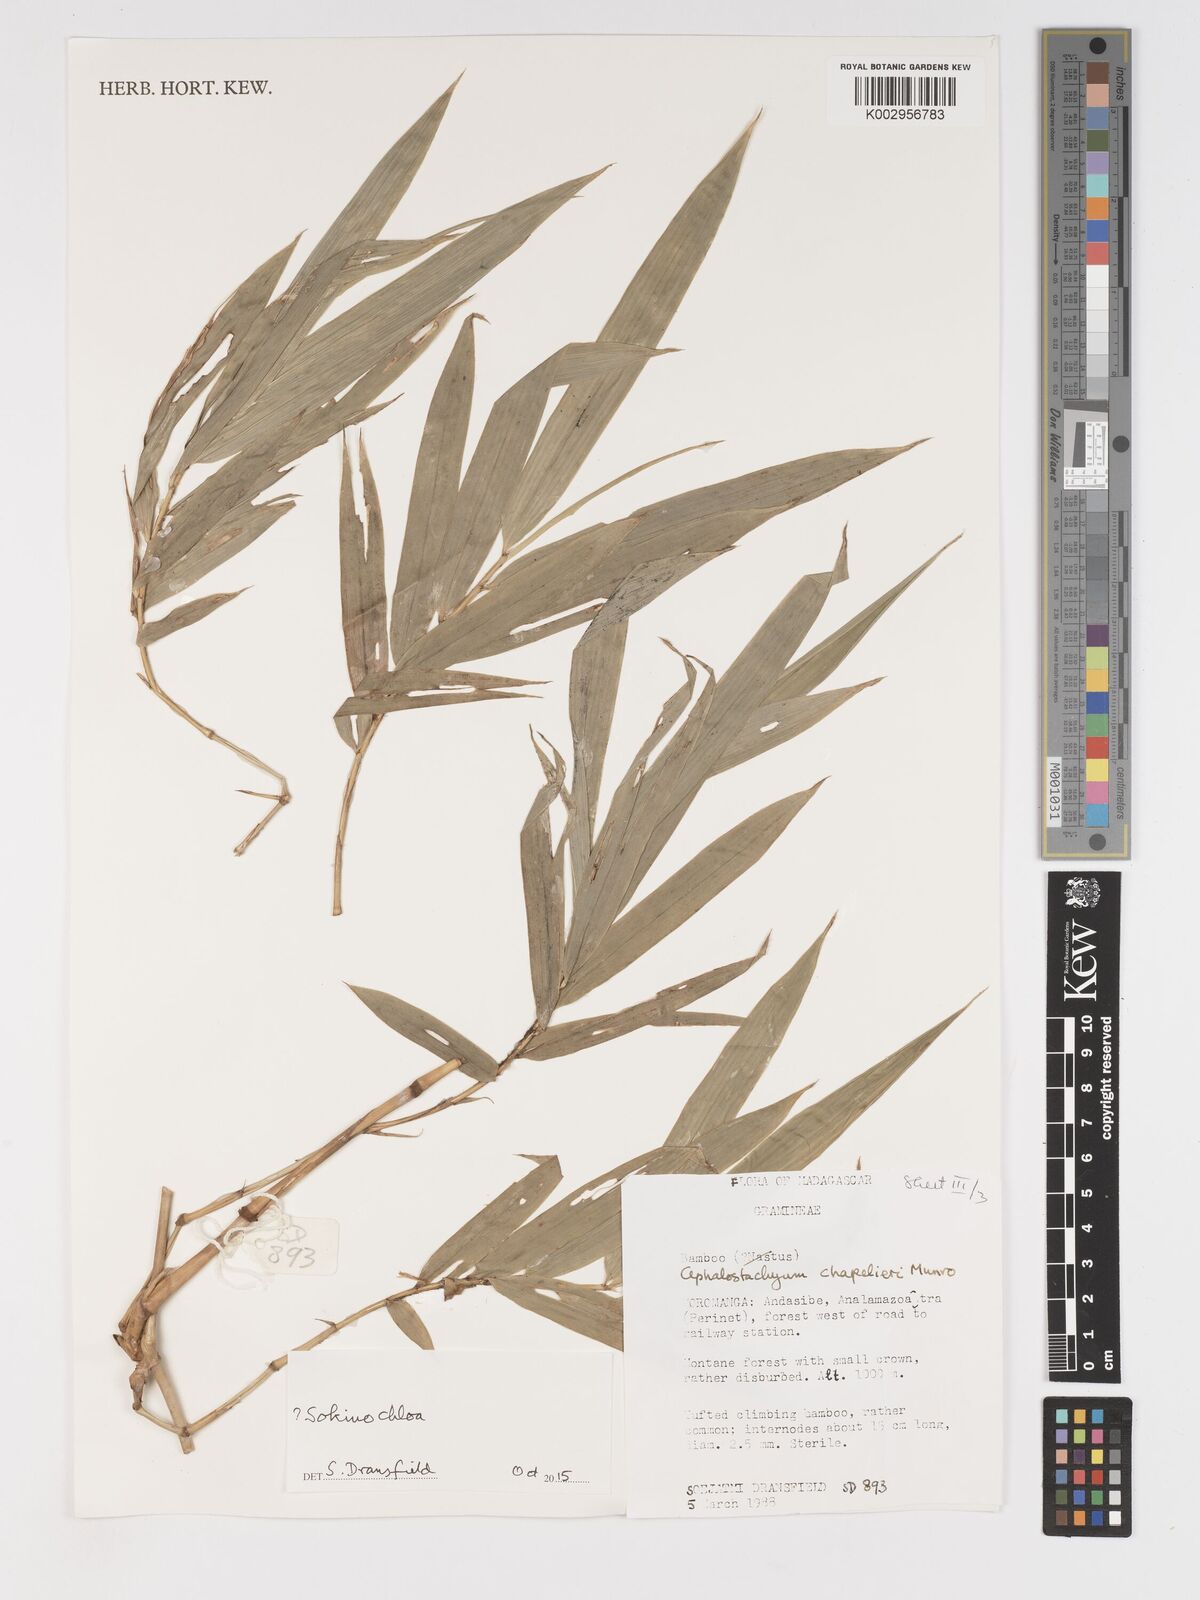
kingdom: Plantae
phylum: Tracheophyta
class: Liliopsida
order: Poales
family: Poaceae
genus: Sokinochloa
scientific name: Sokinochloa
